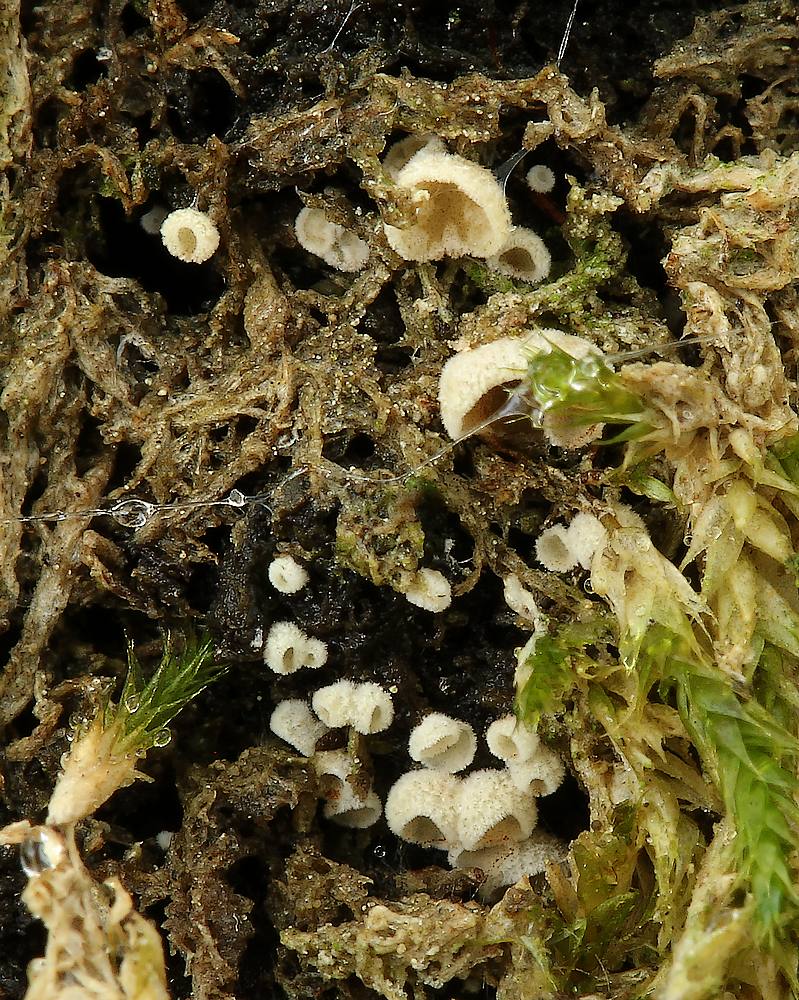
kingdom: Fungi
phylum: Basidiomycota
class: Agaricomycetes
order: Agaricales
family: Chromocyphellaceae
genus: Chromocyphella
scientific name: Chromocyphella muscicola
